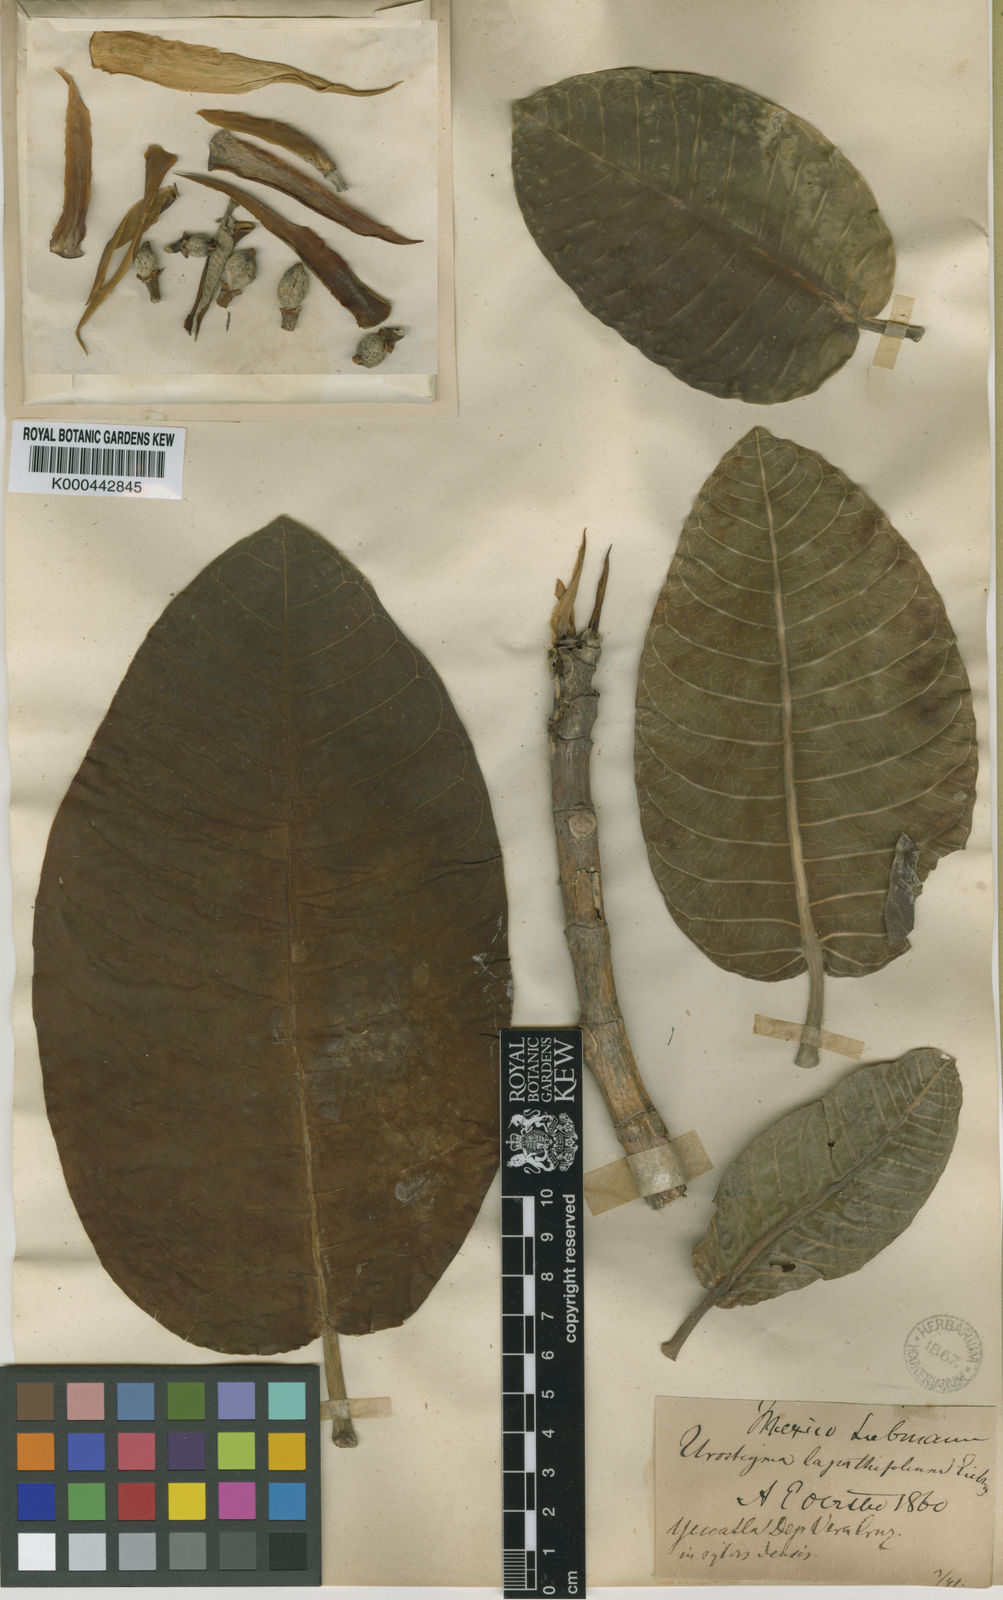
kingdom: Plantae
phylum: Tracheophyta
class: Magnoliopsida
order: Rosales
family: Moraceae
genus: Ficus
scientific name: Ficus lapathifolia
